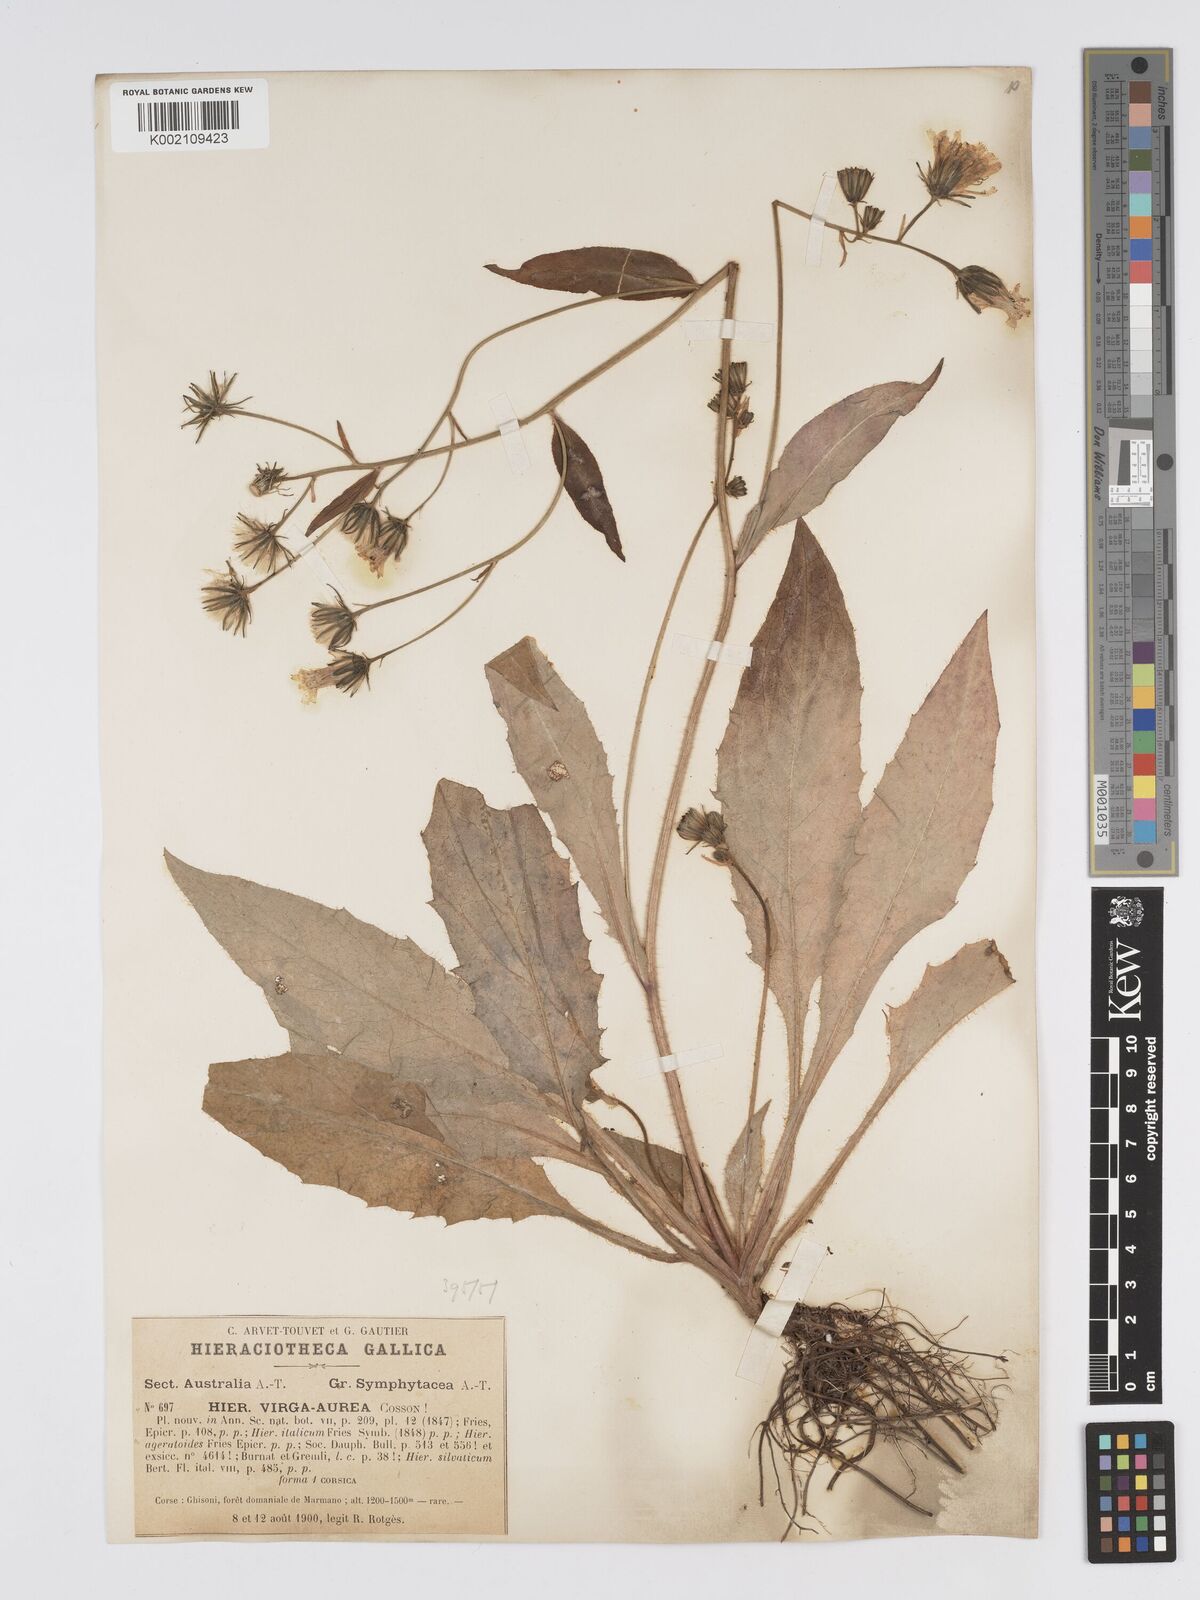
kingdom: Plantae
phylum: Tracheophyta
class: Magnoliopsida
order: Asterales
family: Asteraceae
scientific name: Asteraceae
